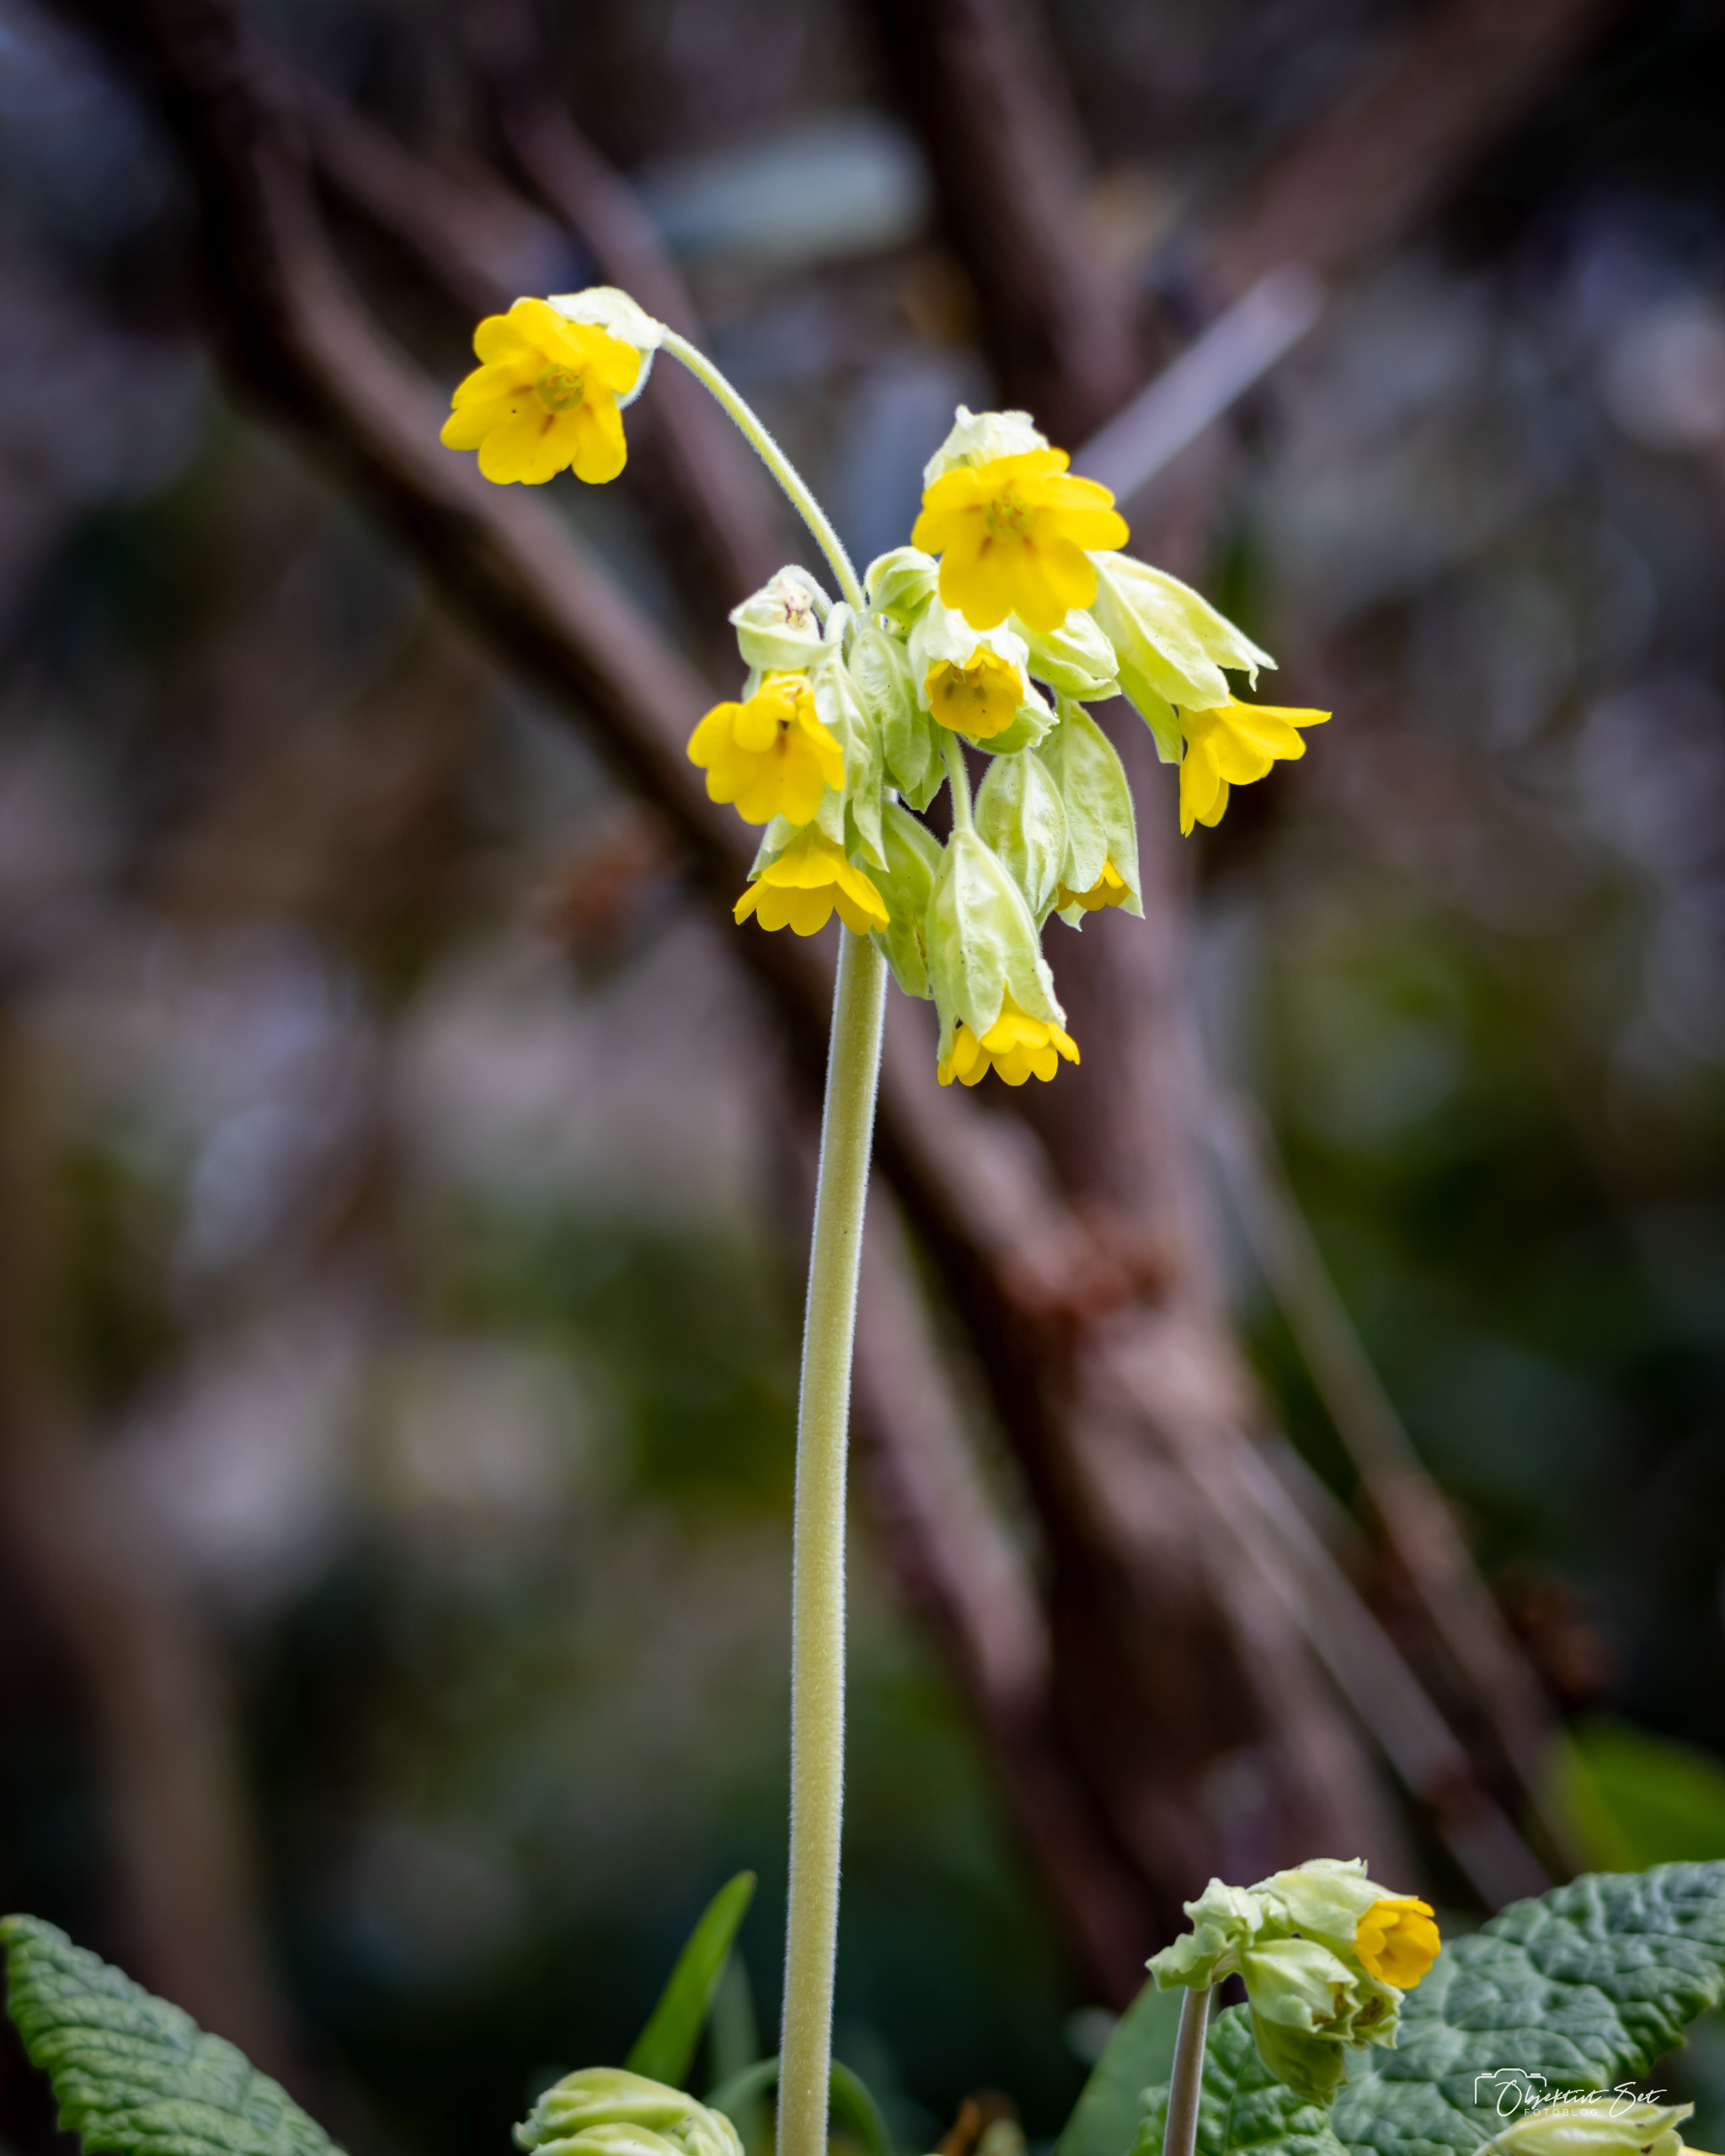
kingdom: Plantae
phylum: Tracheophyta
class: Magnoliopsida
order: Ericales
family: Primulaceae
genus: Primula
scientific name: Primula veris
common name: Hulkravet kodriver
